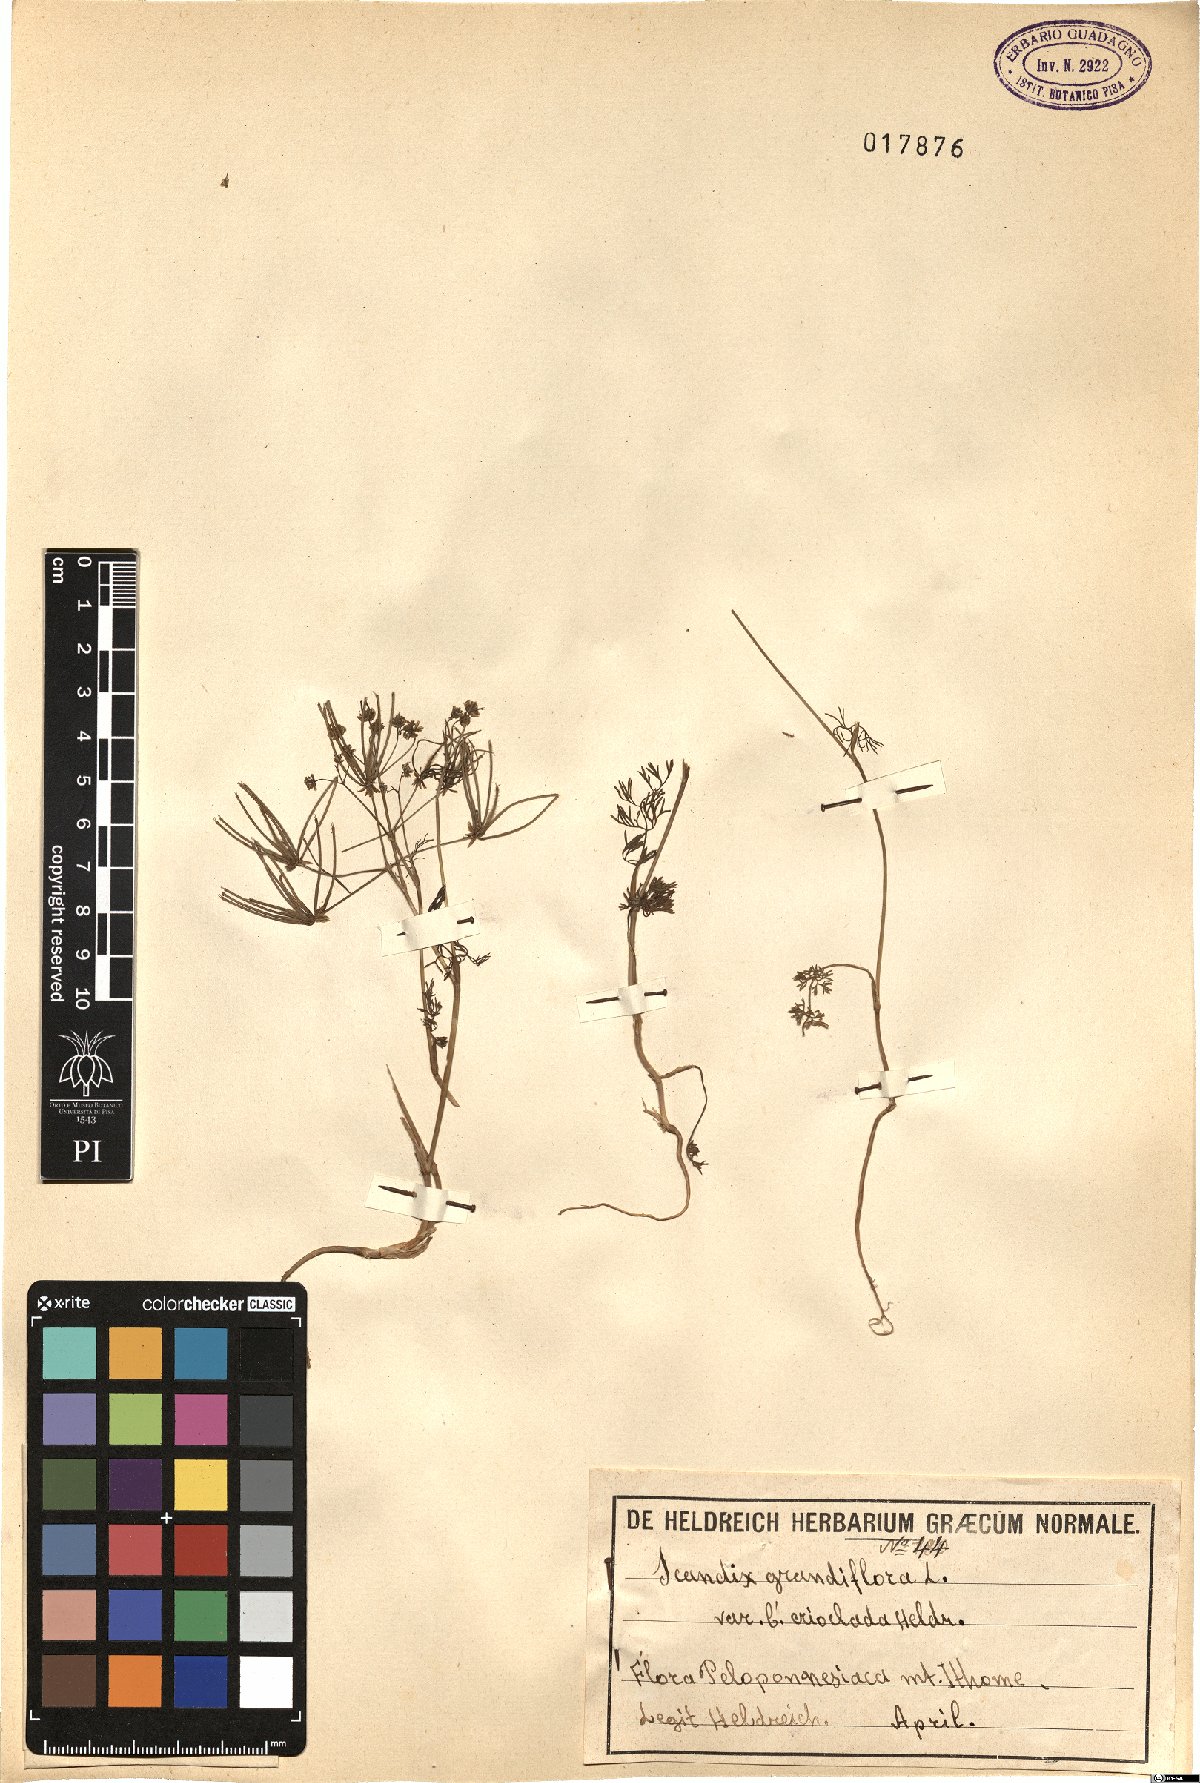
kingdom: Plantae
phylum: Tracheophyta
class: Magnoliopsida
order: Apiales
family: Apiaceae
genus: Scandix
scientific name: Scandix australis
